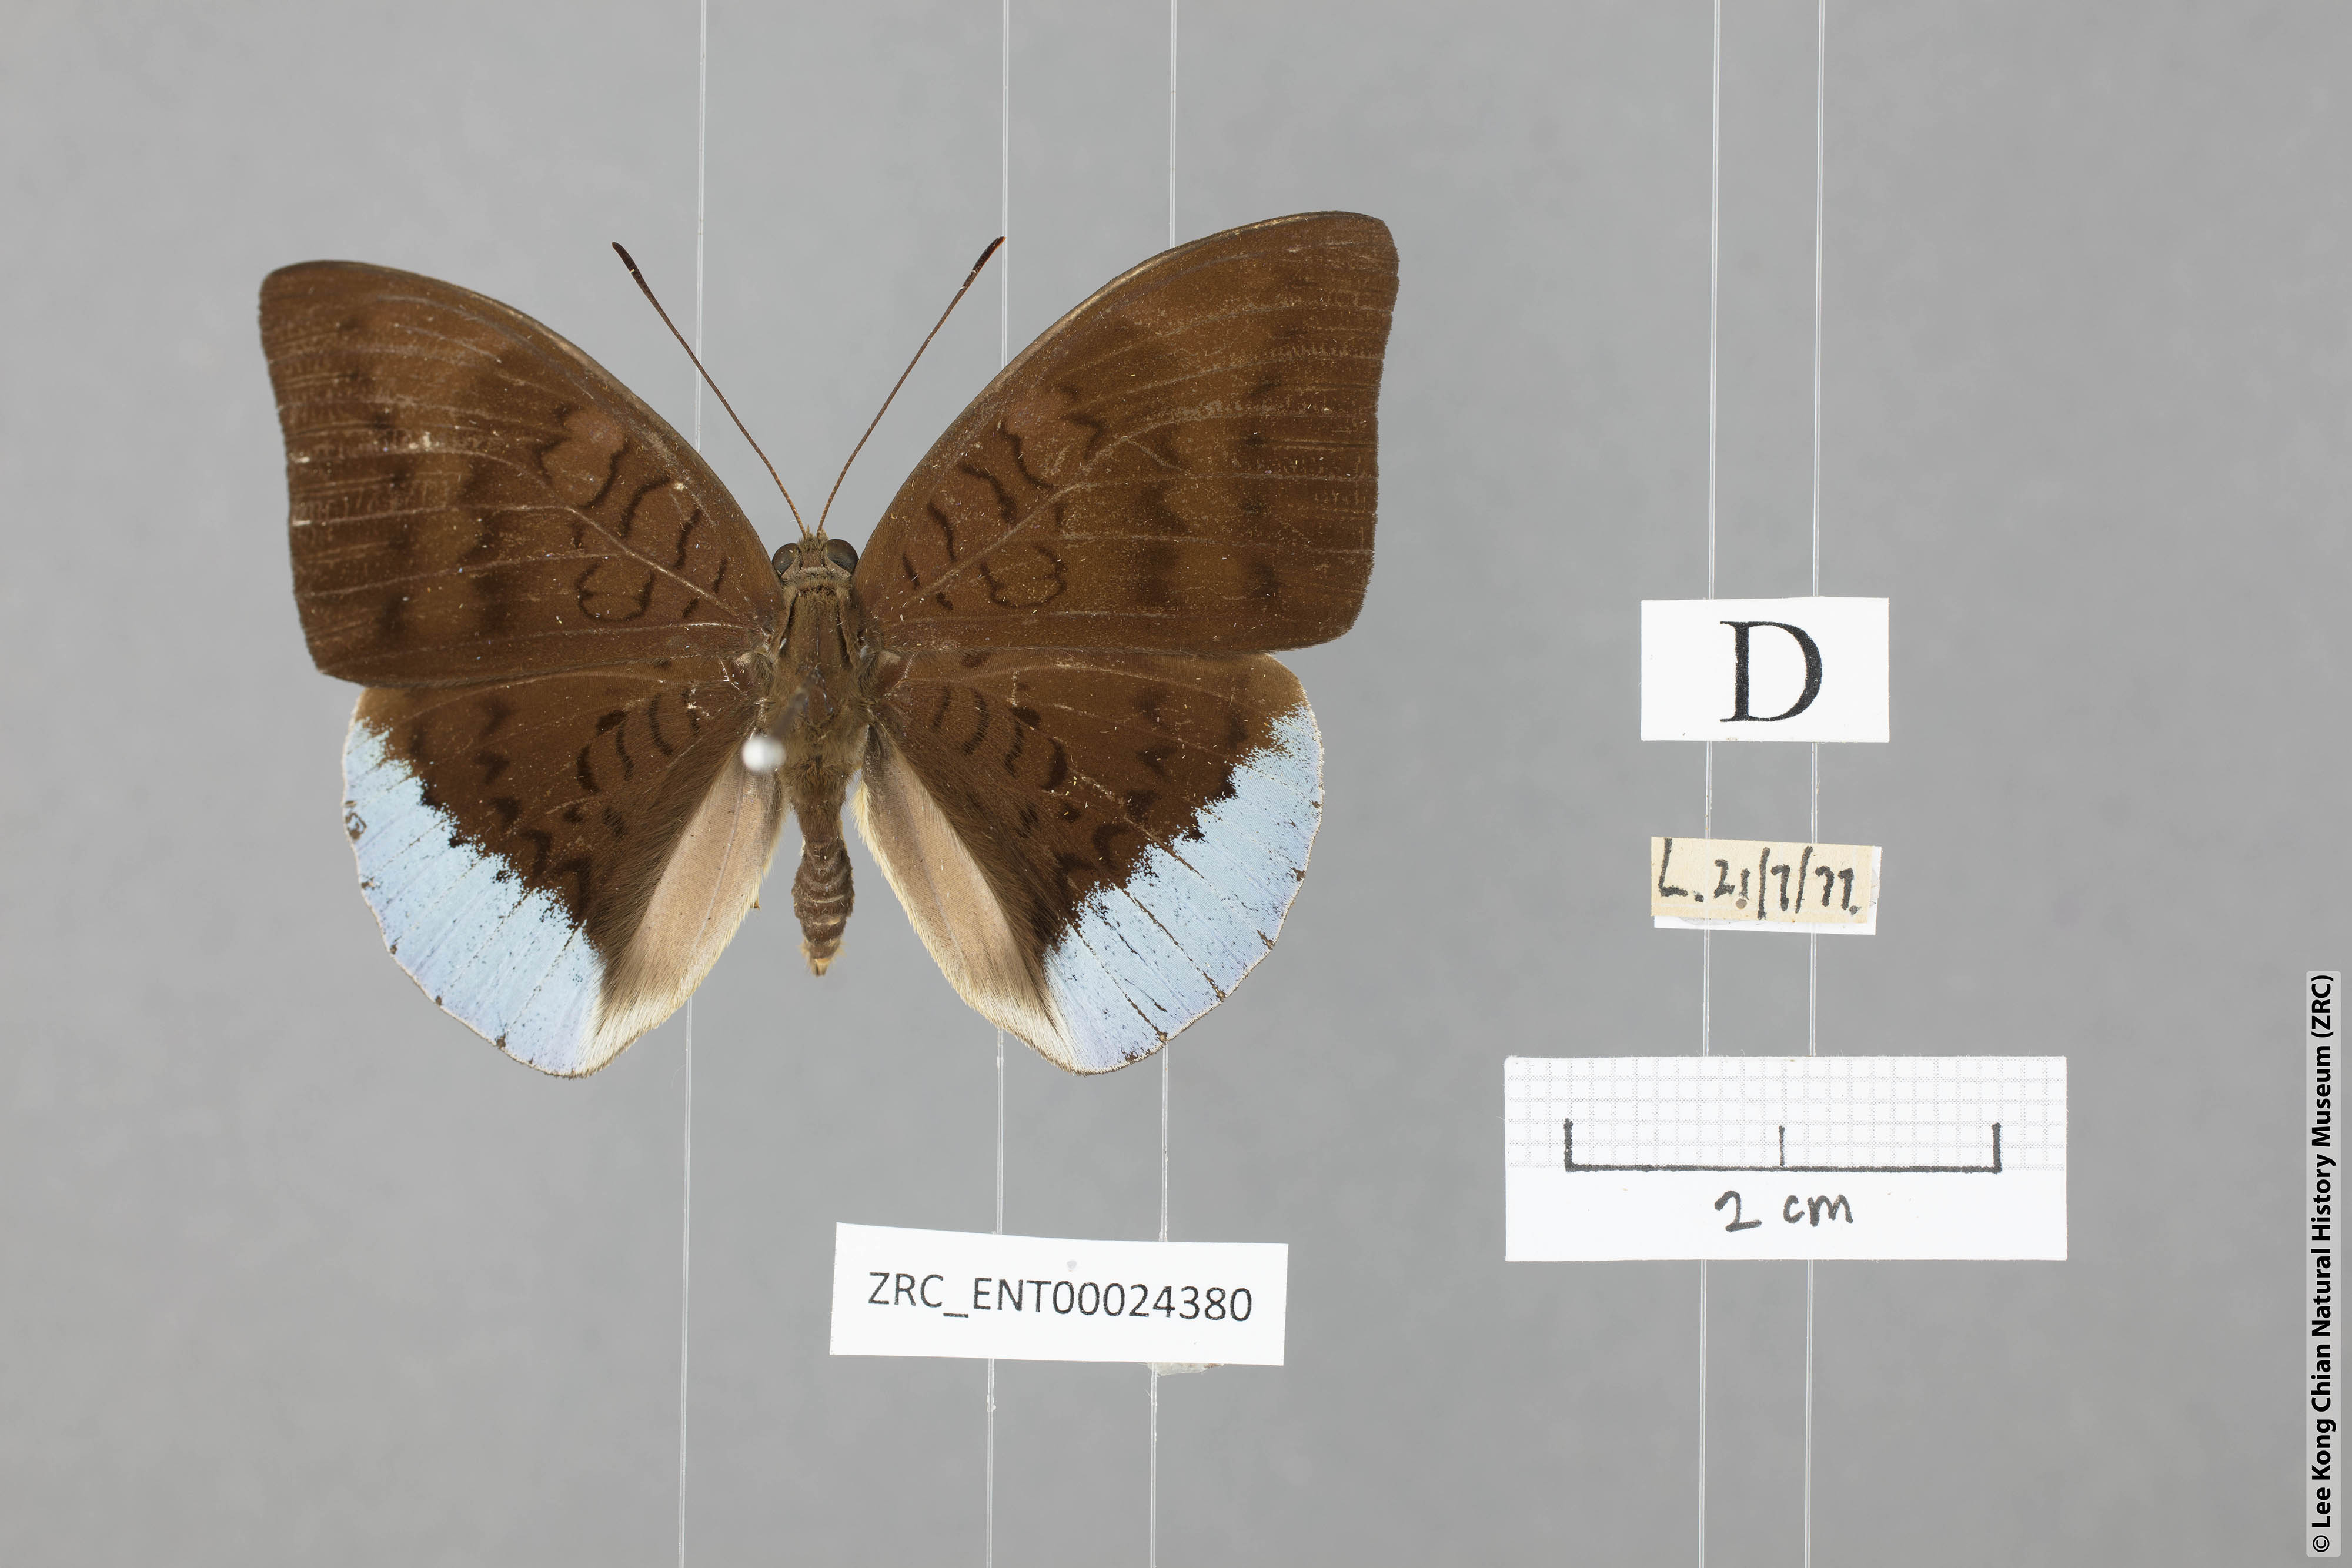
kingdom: Animalia
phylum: Arthropoda
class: Insecta
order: Lepidoptera
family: Nymphalidae
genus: Tanaecia
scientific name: Tanaecia julii
